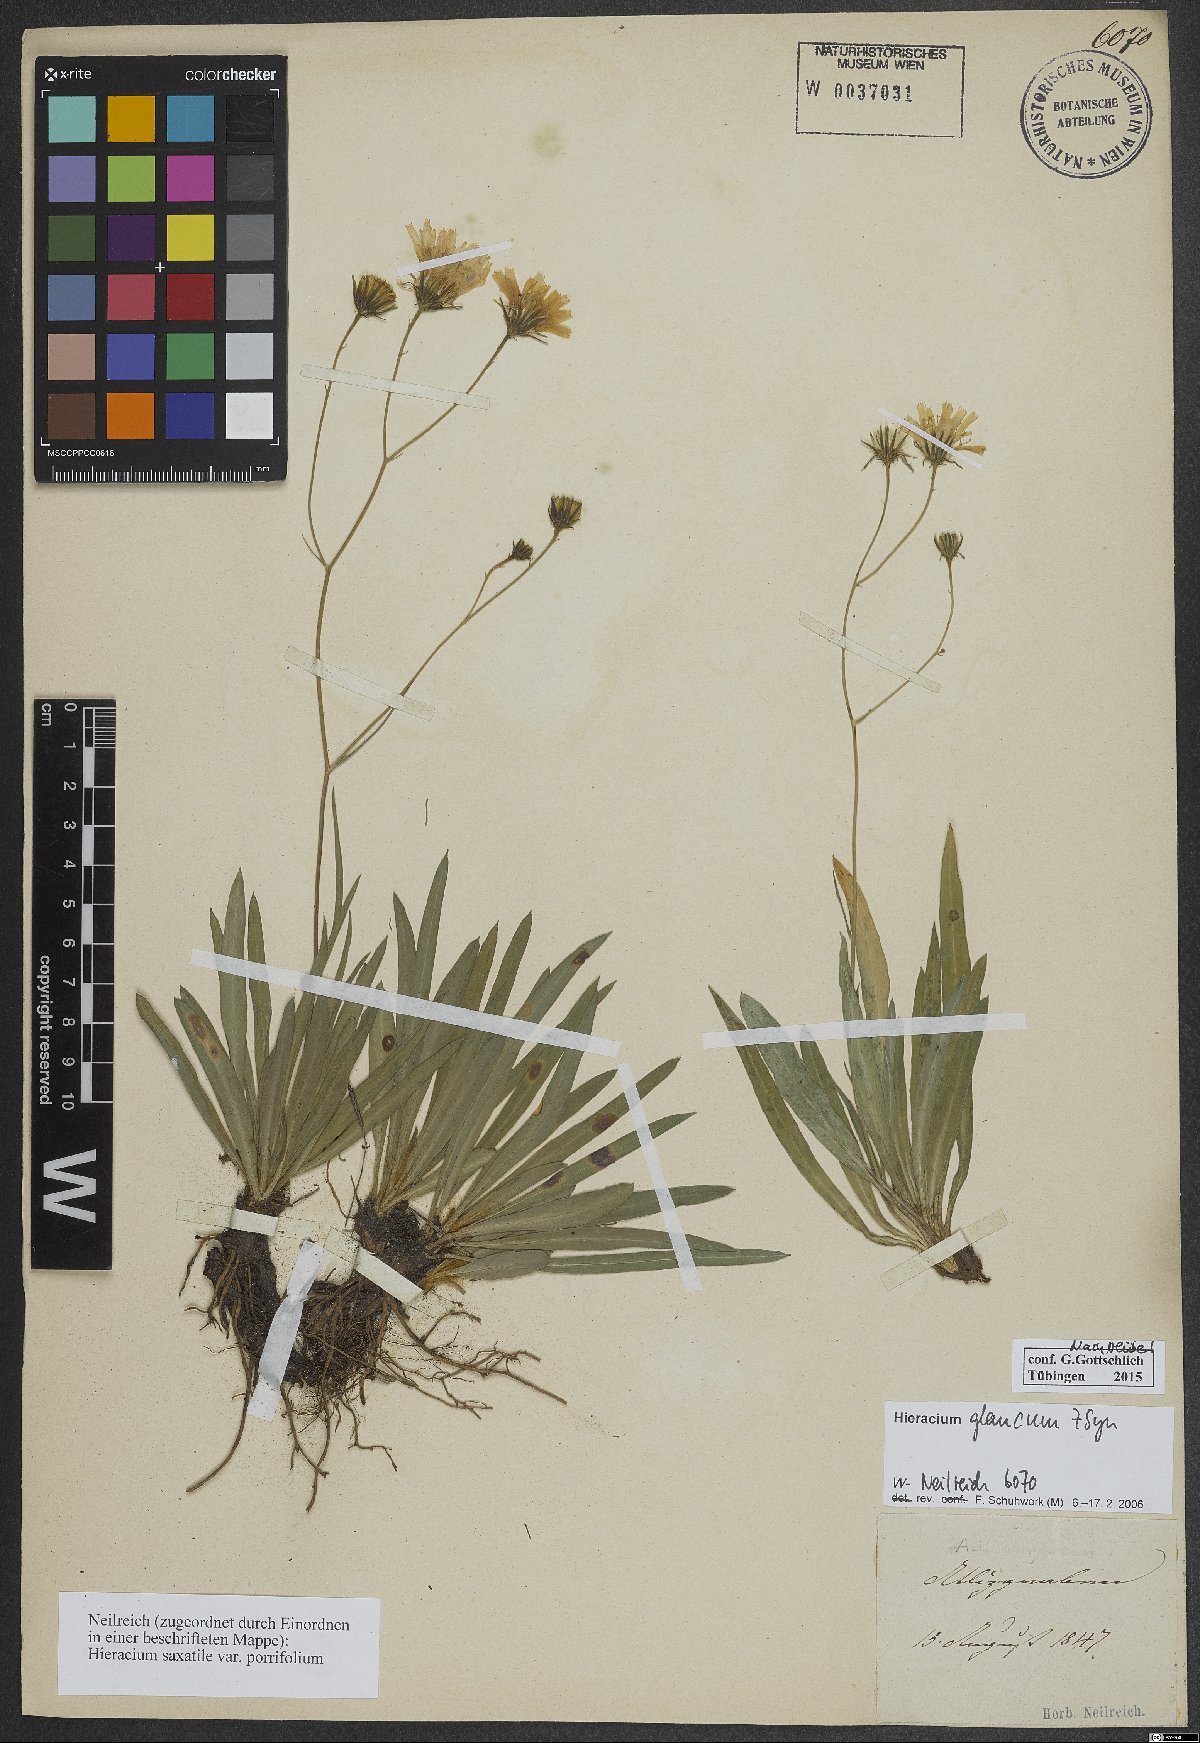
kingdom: Plantae
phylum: Tracheophyta
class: Magnoliopsida
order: Asterales
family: Asteraceae
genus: Hieracium
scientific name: Hieracium glaucum
